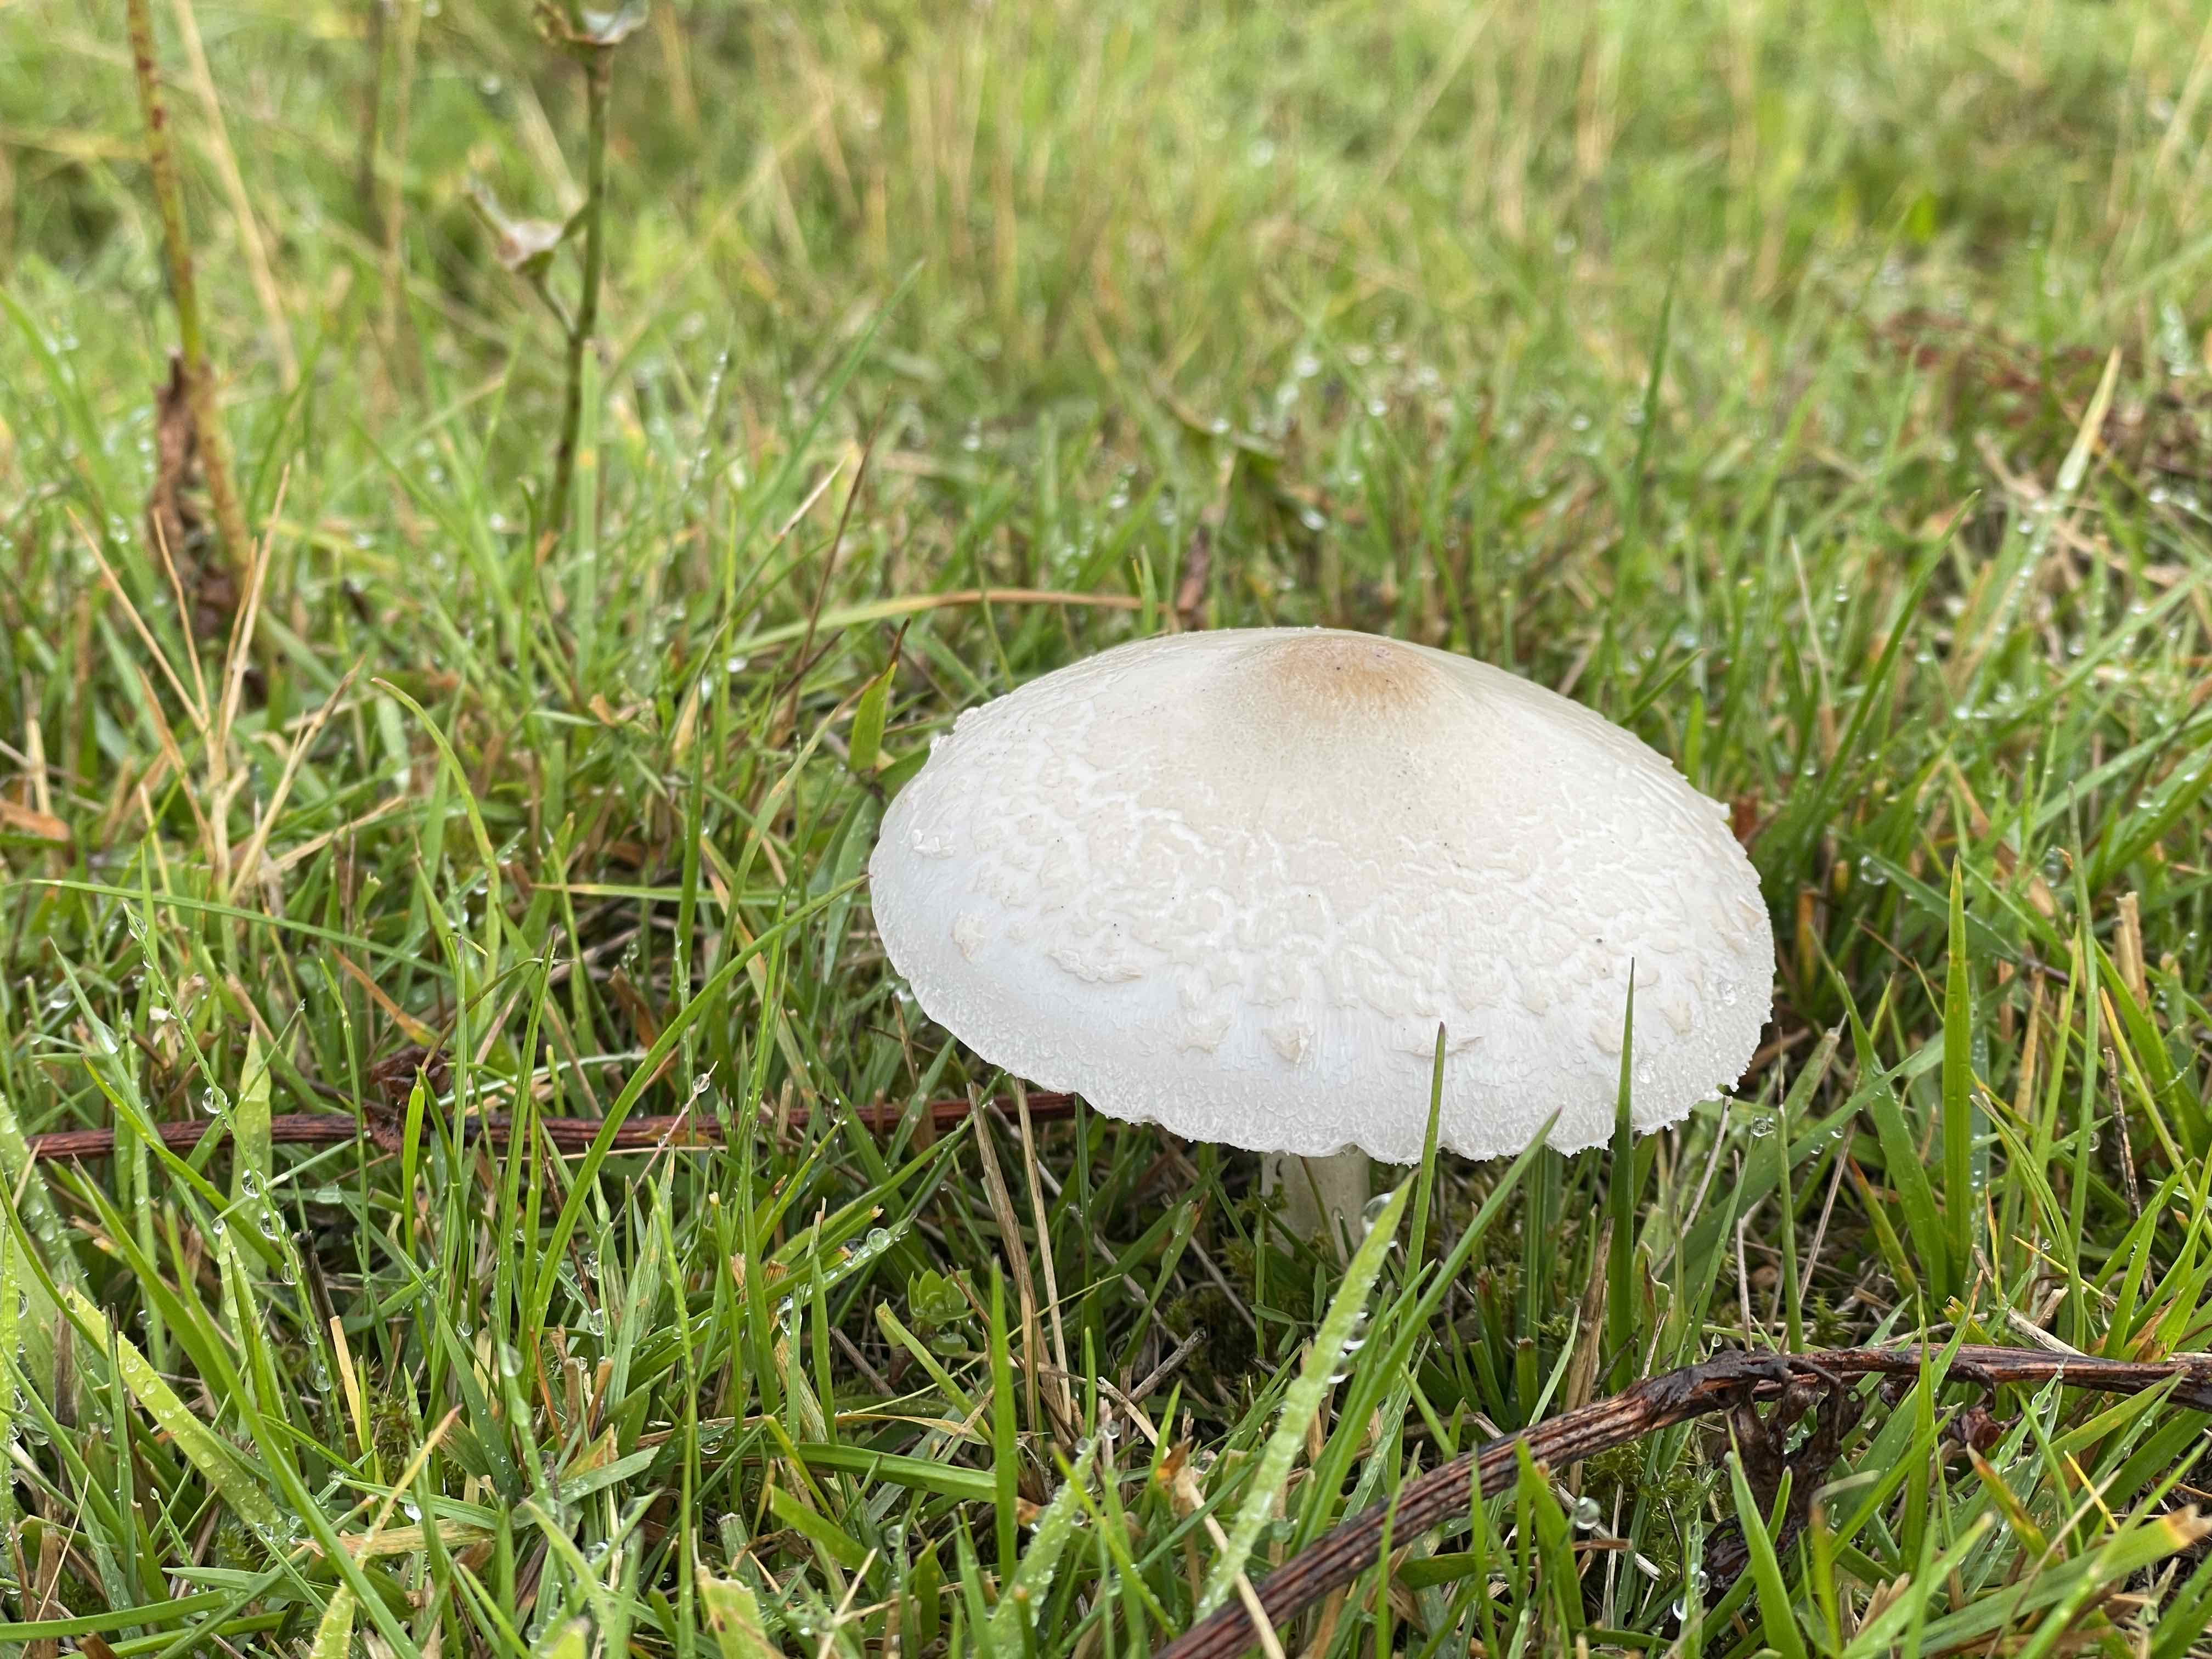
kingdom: Fungi
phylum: Basidiomycota
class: Agaricomycetes
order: Agaricales
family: Agaricaceae
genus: Macrolepiota
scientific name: Macrolepiota excoriata
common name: mark-kæmpeparasolhat
